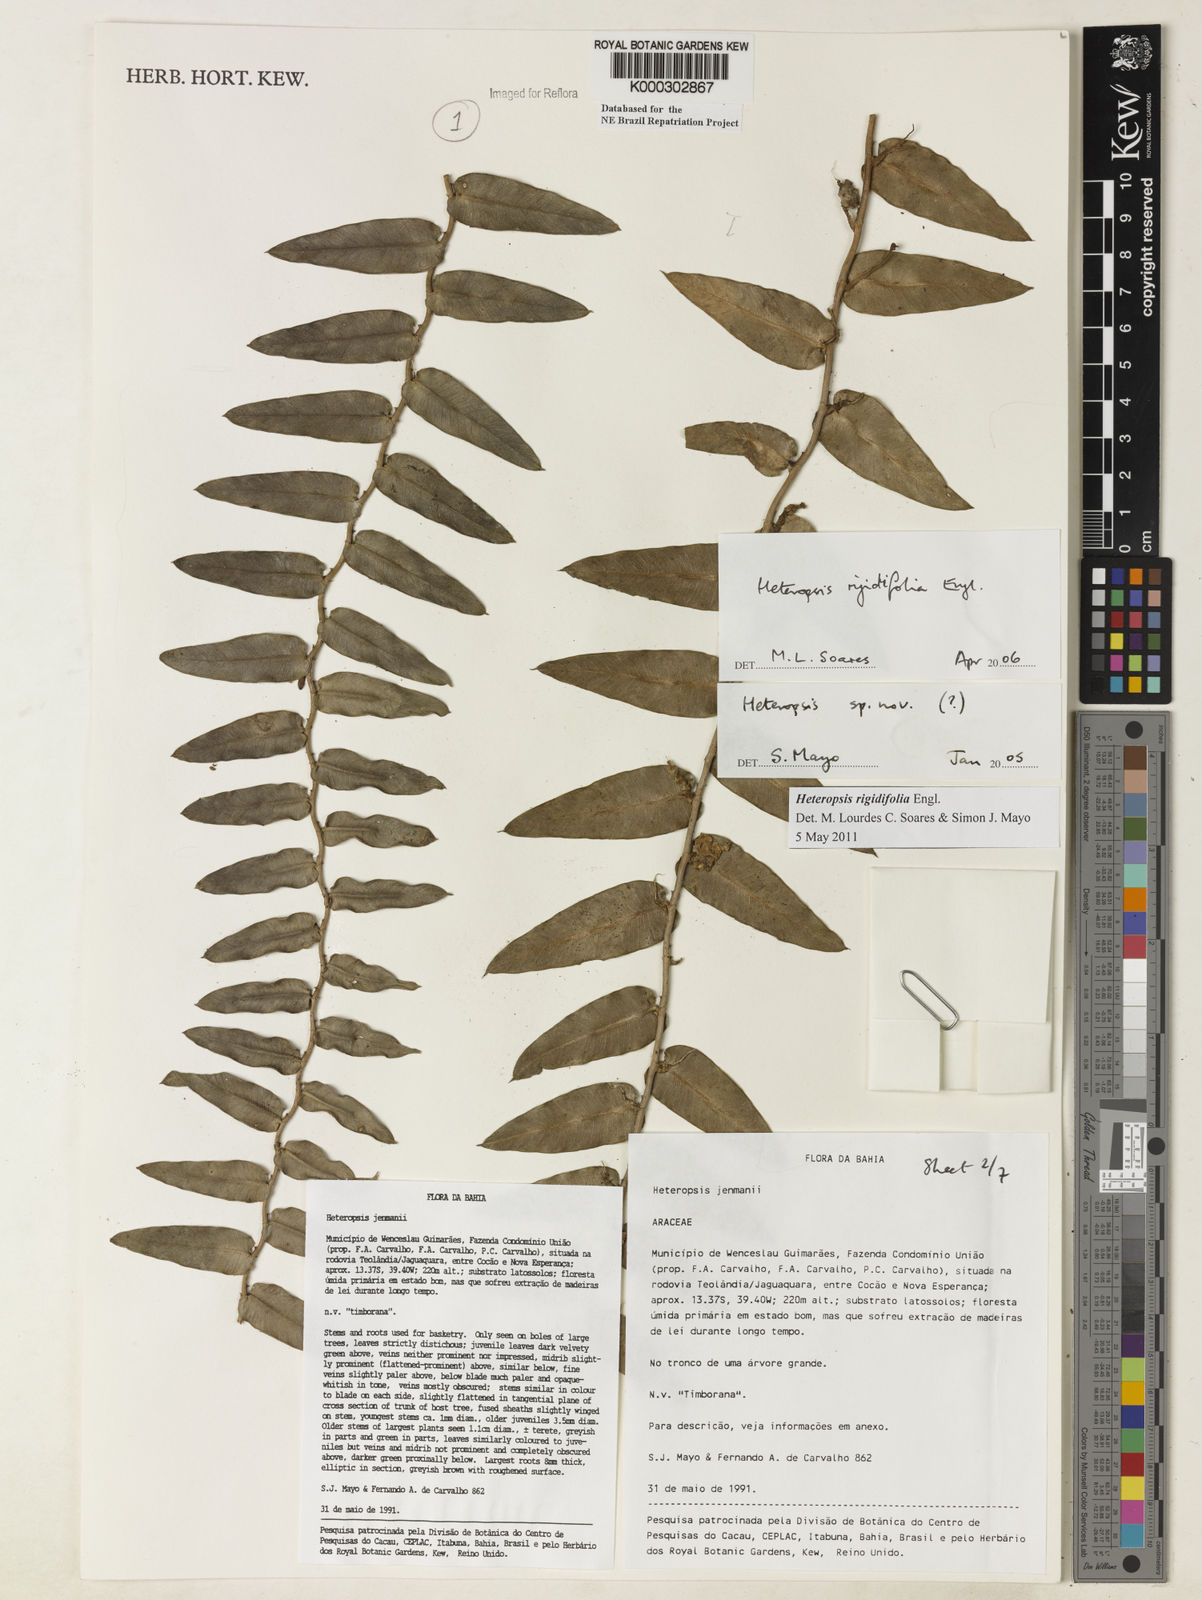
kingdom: Plantae
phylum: Tracheophyta
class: Liliopsida
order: Alismatales
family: Araceae
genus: Heteropsis
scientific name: Heteropsis
